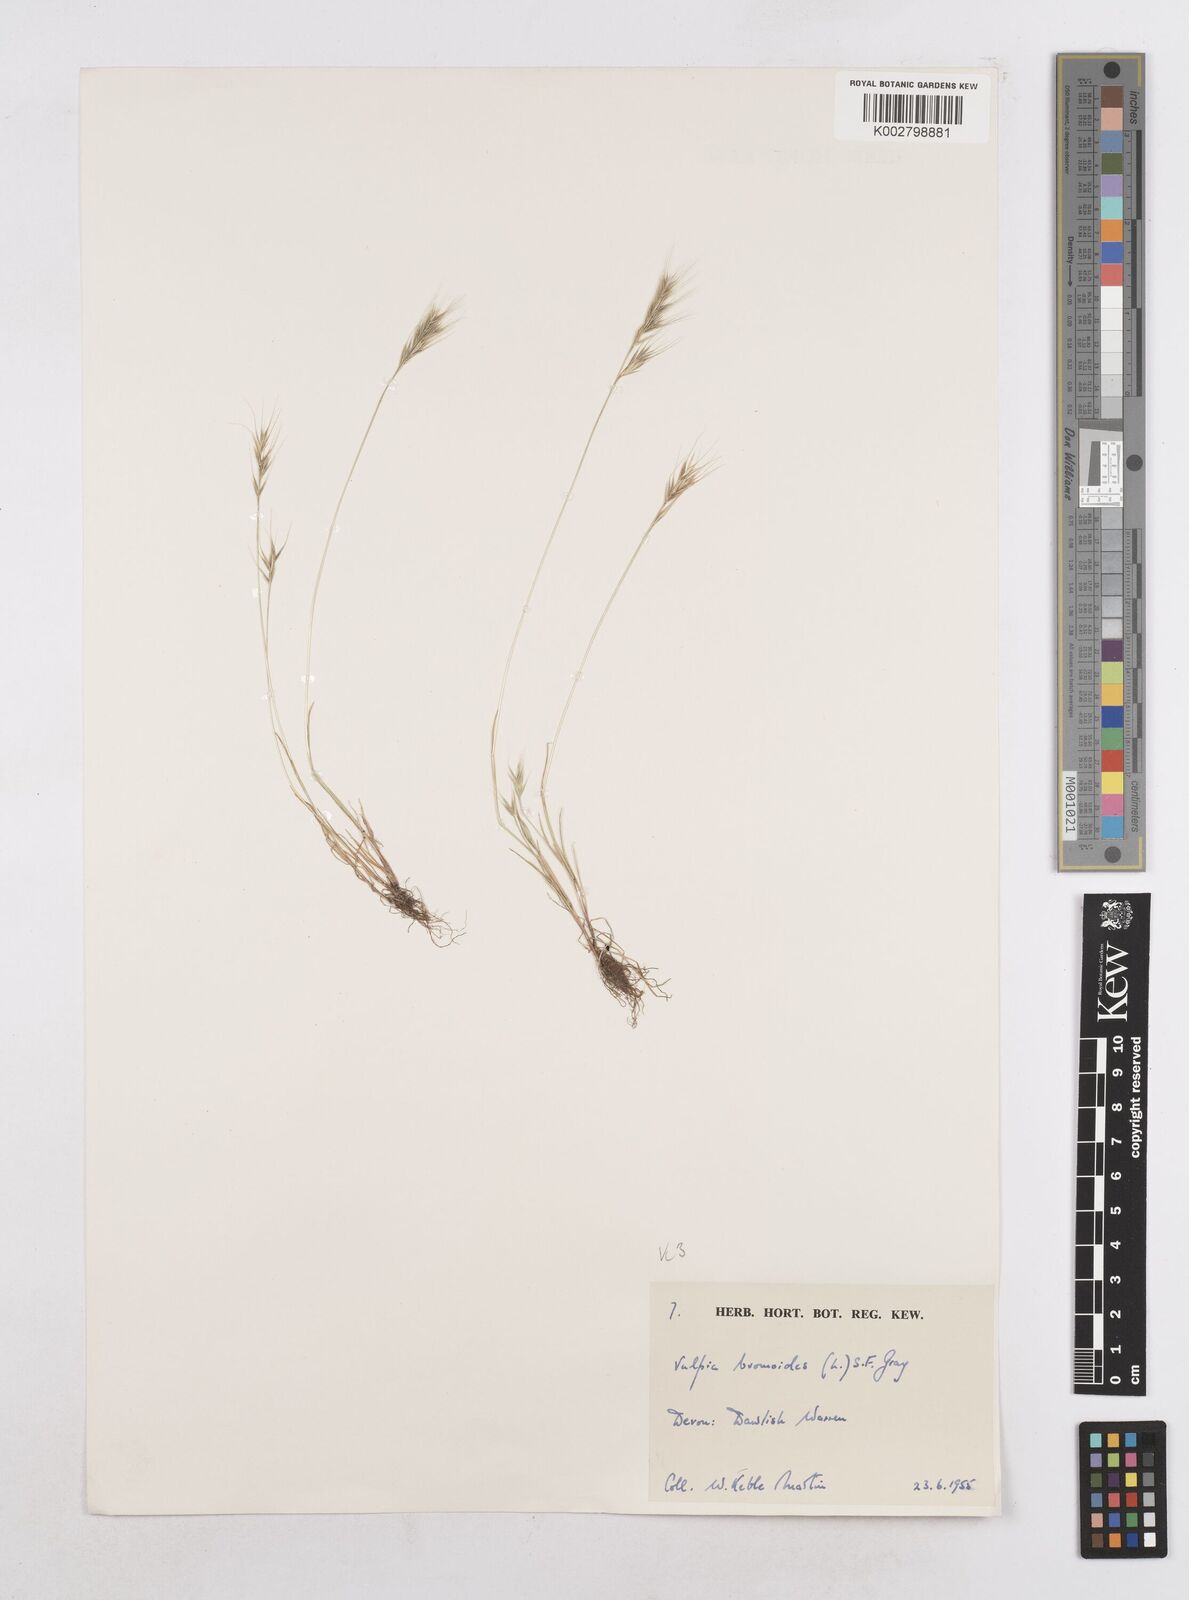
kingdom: Plantae
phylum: Tracheophyta
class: Liliopsida
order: Poales
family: Poaceae
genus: Festuca
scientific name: Festuca bromoides
